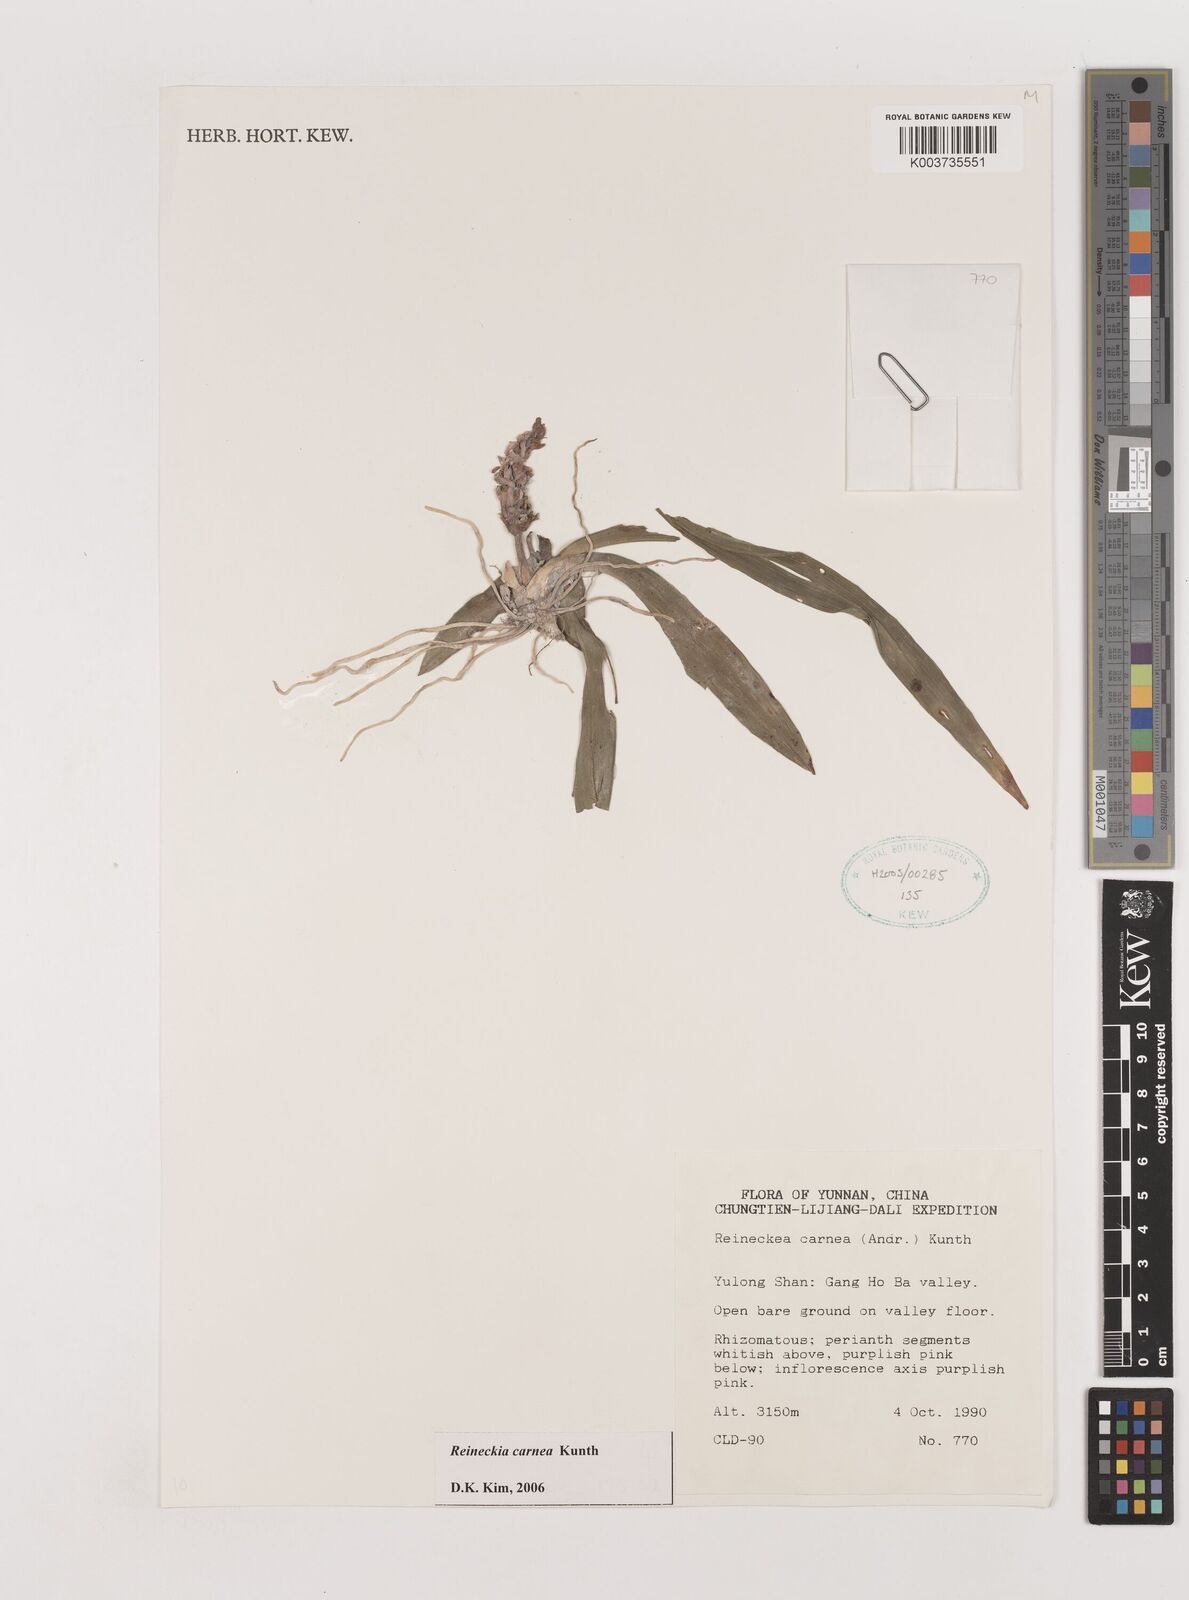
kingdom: Plantae
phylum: Tracheophyta
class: Liliopsida
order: Asparagales
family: Asparagaceae
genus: Reineckea
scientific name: Reineckea carnea
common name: Reineckea
